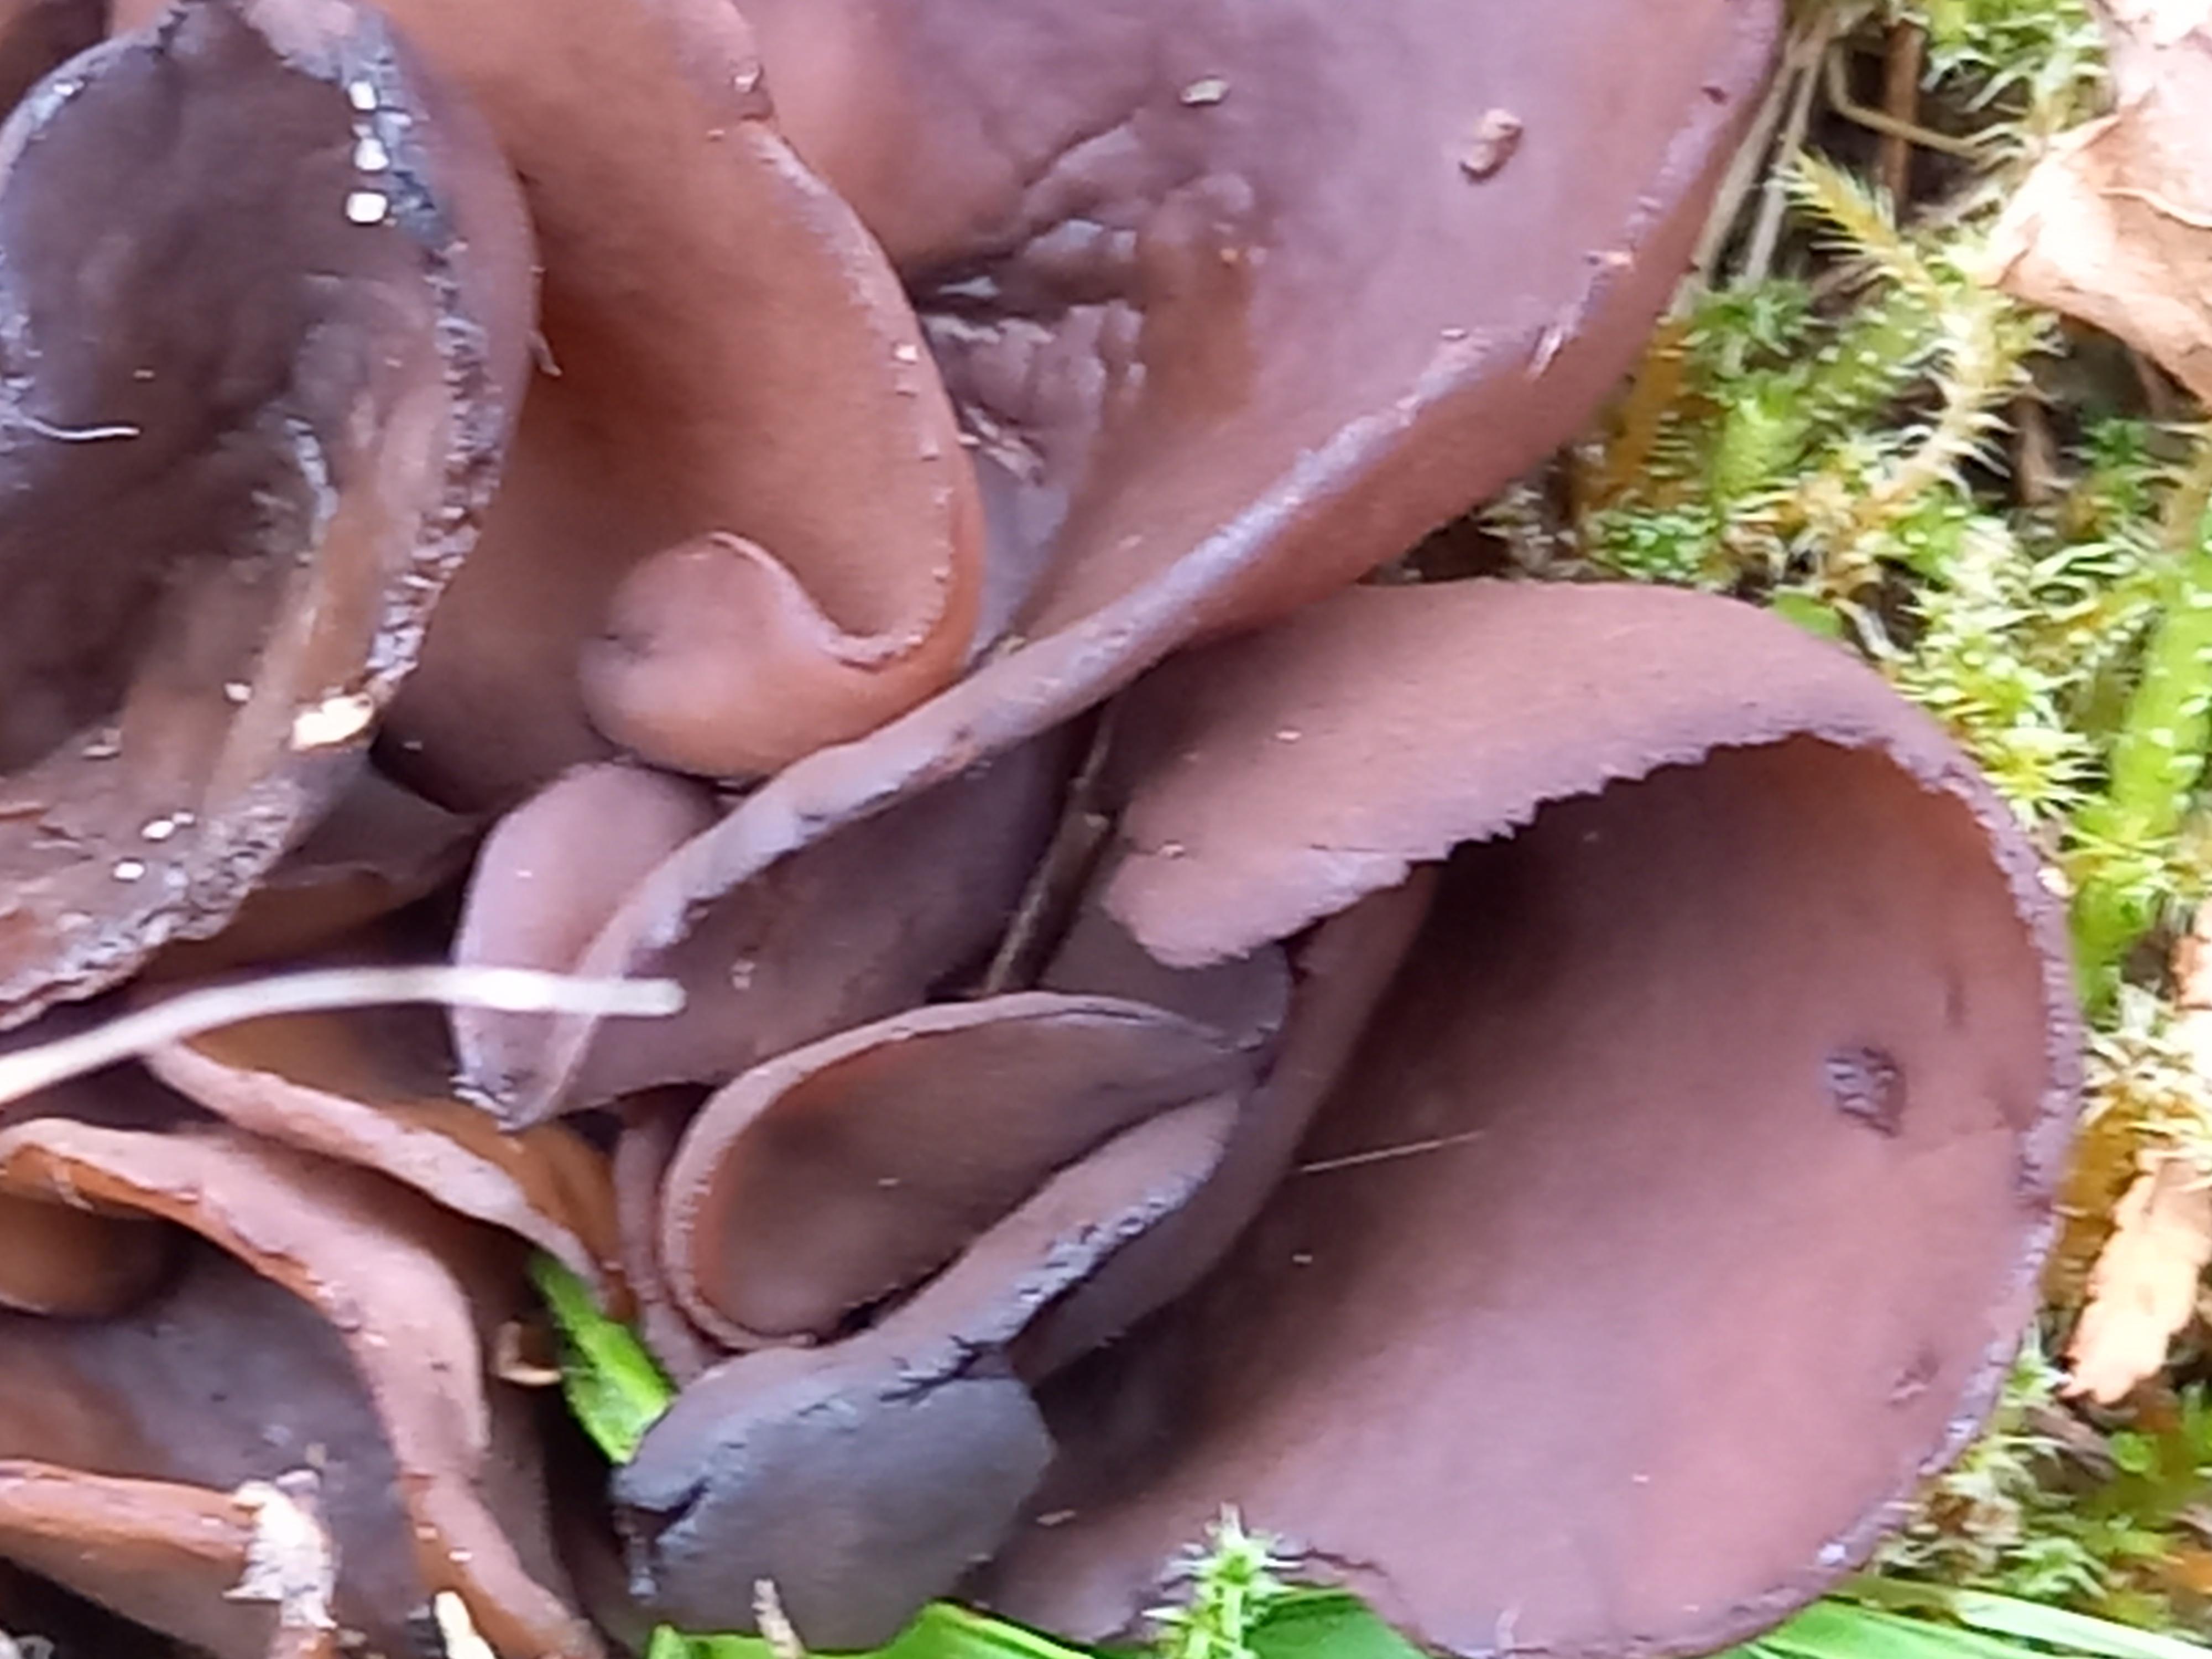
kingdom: Fungi
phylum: Ascomycota
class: Pezizomycetes
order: Pezizales
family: Otideaceae
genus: Otidea
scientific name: Otidea bufonia
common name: brun ørebæger
